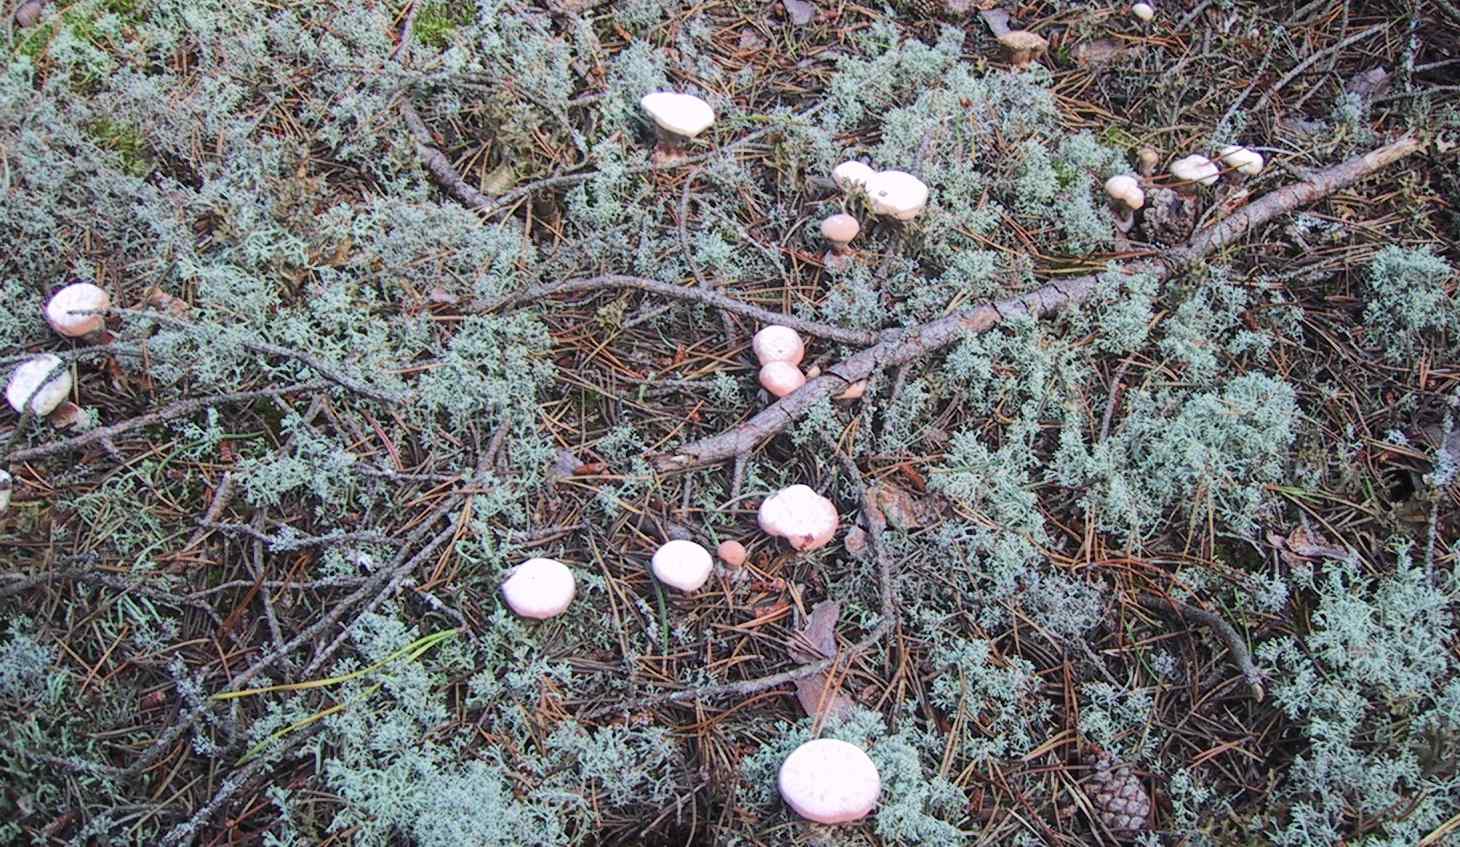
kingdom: Fungi
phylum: Basidiomycota
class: Agaricomycetes
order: Thelephorales
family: Bankeraceae
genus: Hydnellum
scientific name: Hydnellum peckii
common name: bitter korkpigsvamp
